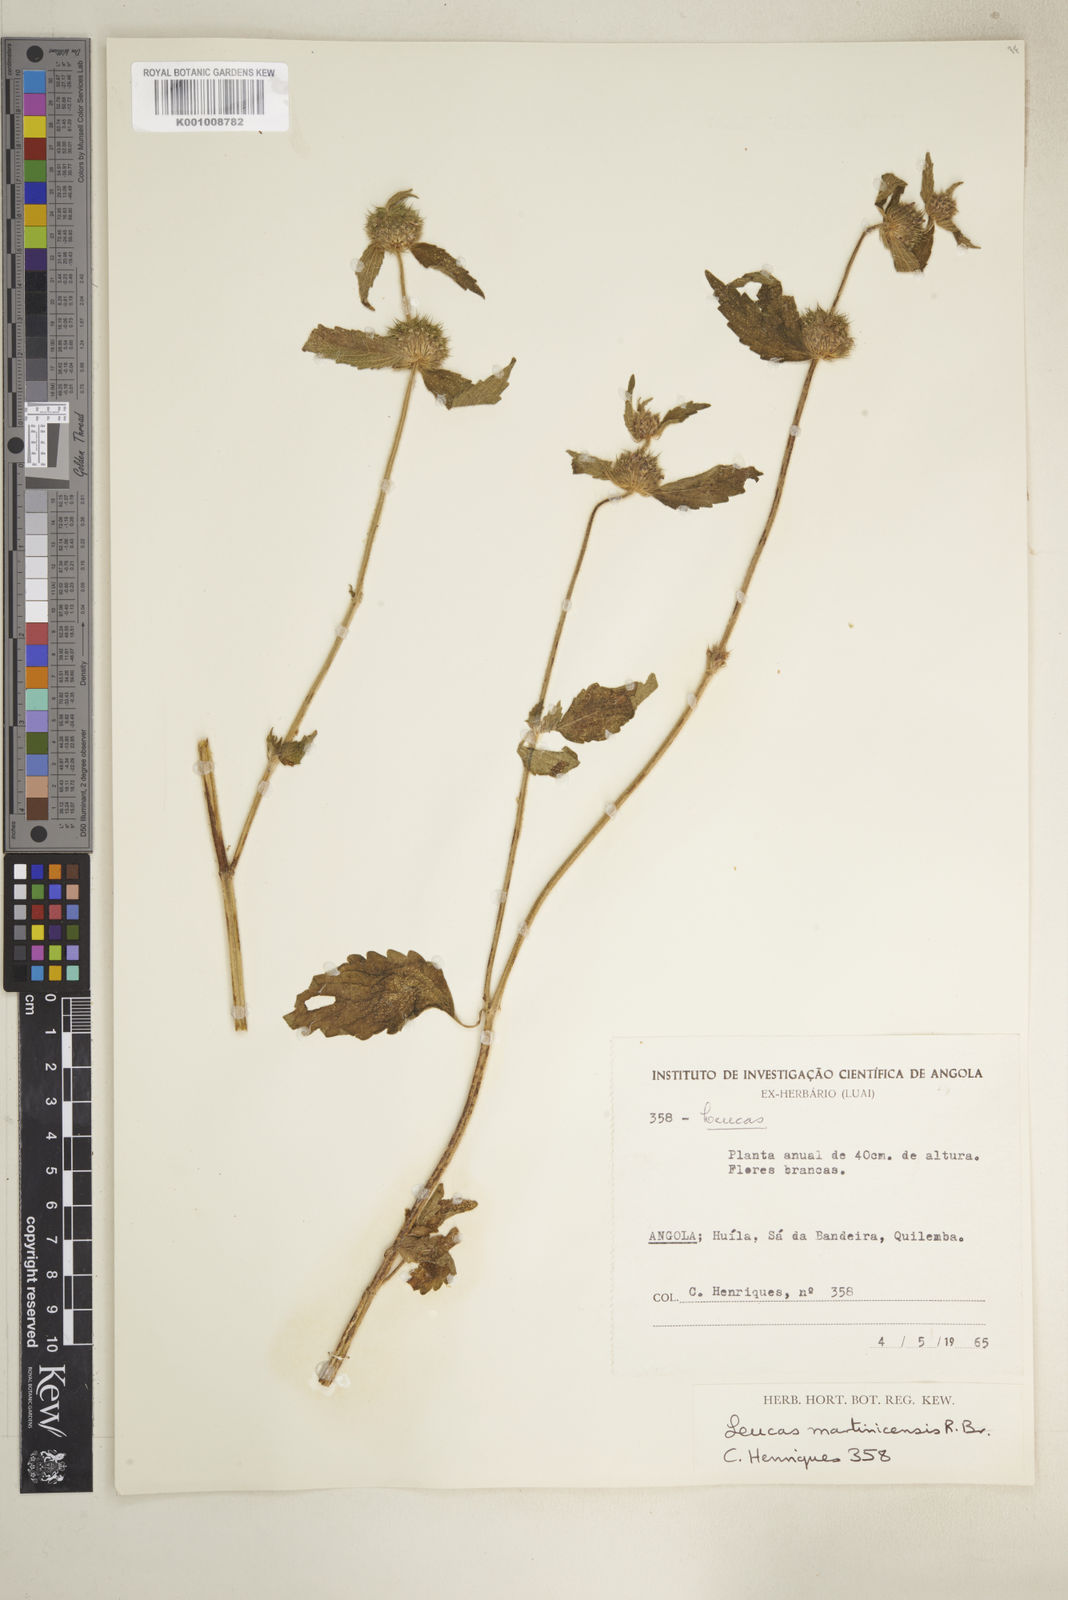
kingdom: Plantae
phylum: Tracheophyta
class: Magnoliopsida
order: Lamiales
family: Lamiaceae
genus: Leucas
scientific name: Leucas martinicensis
